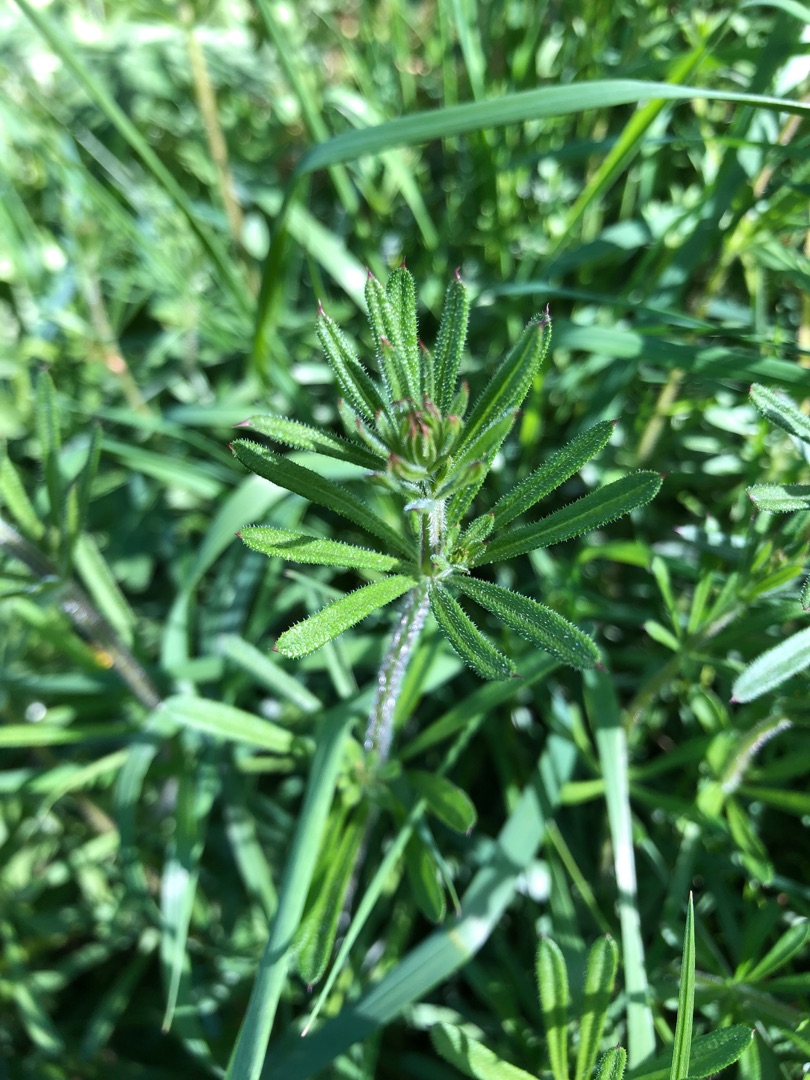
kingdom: Plantae
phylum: Tracheophyta
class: Magnoliopsida
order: Gentianales
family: Rubiaceae
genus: Galium
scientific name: Galium aparine
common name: Burre-snerre
